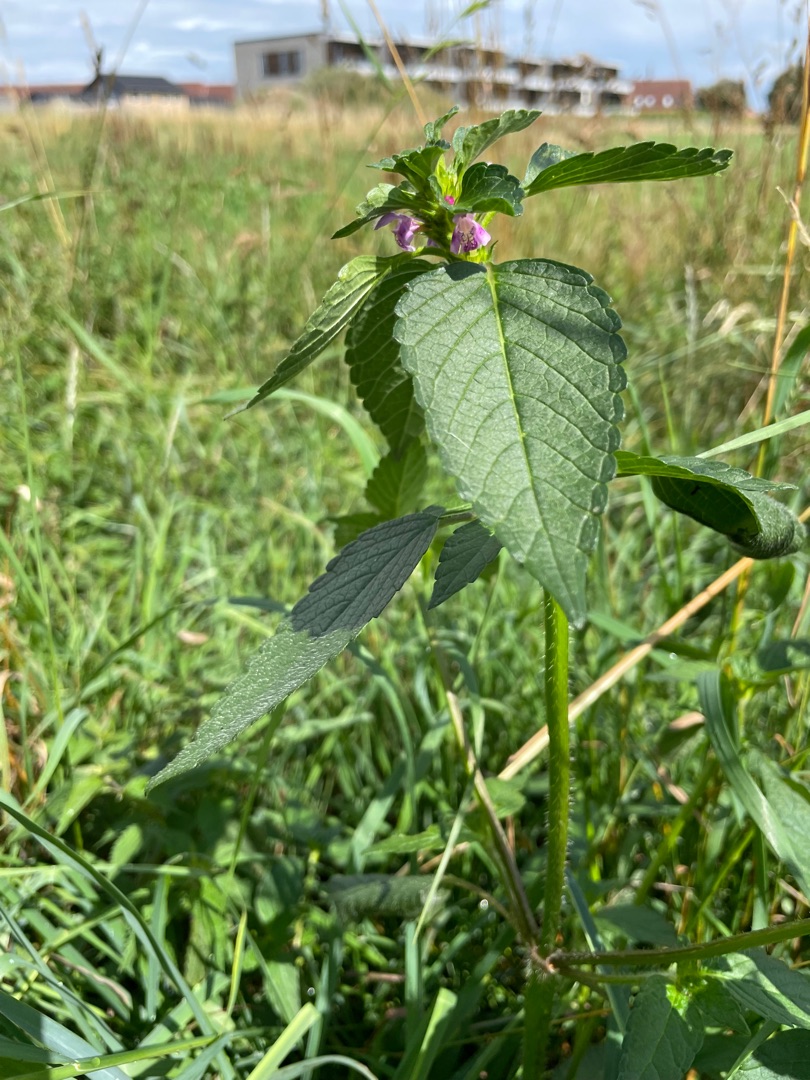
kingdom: Plantae
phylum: Tracheophyta
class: Magnoliopsida
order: Lamiales
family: Lamiaceae
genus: Galeopsis
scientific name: Galeopsis
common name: Hanekroslægten
